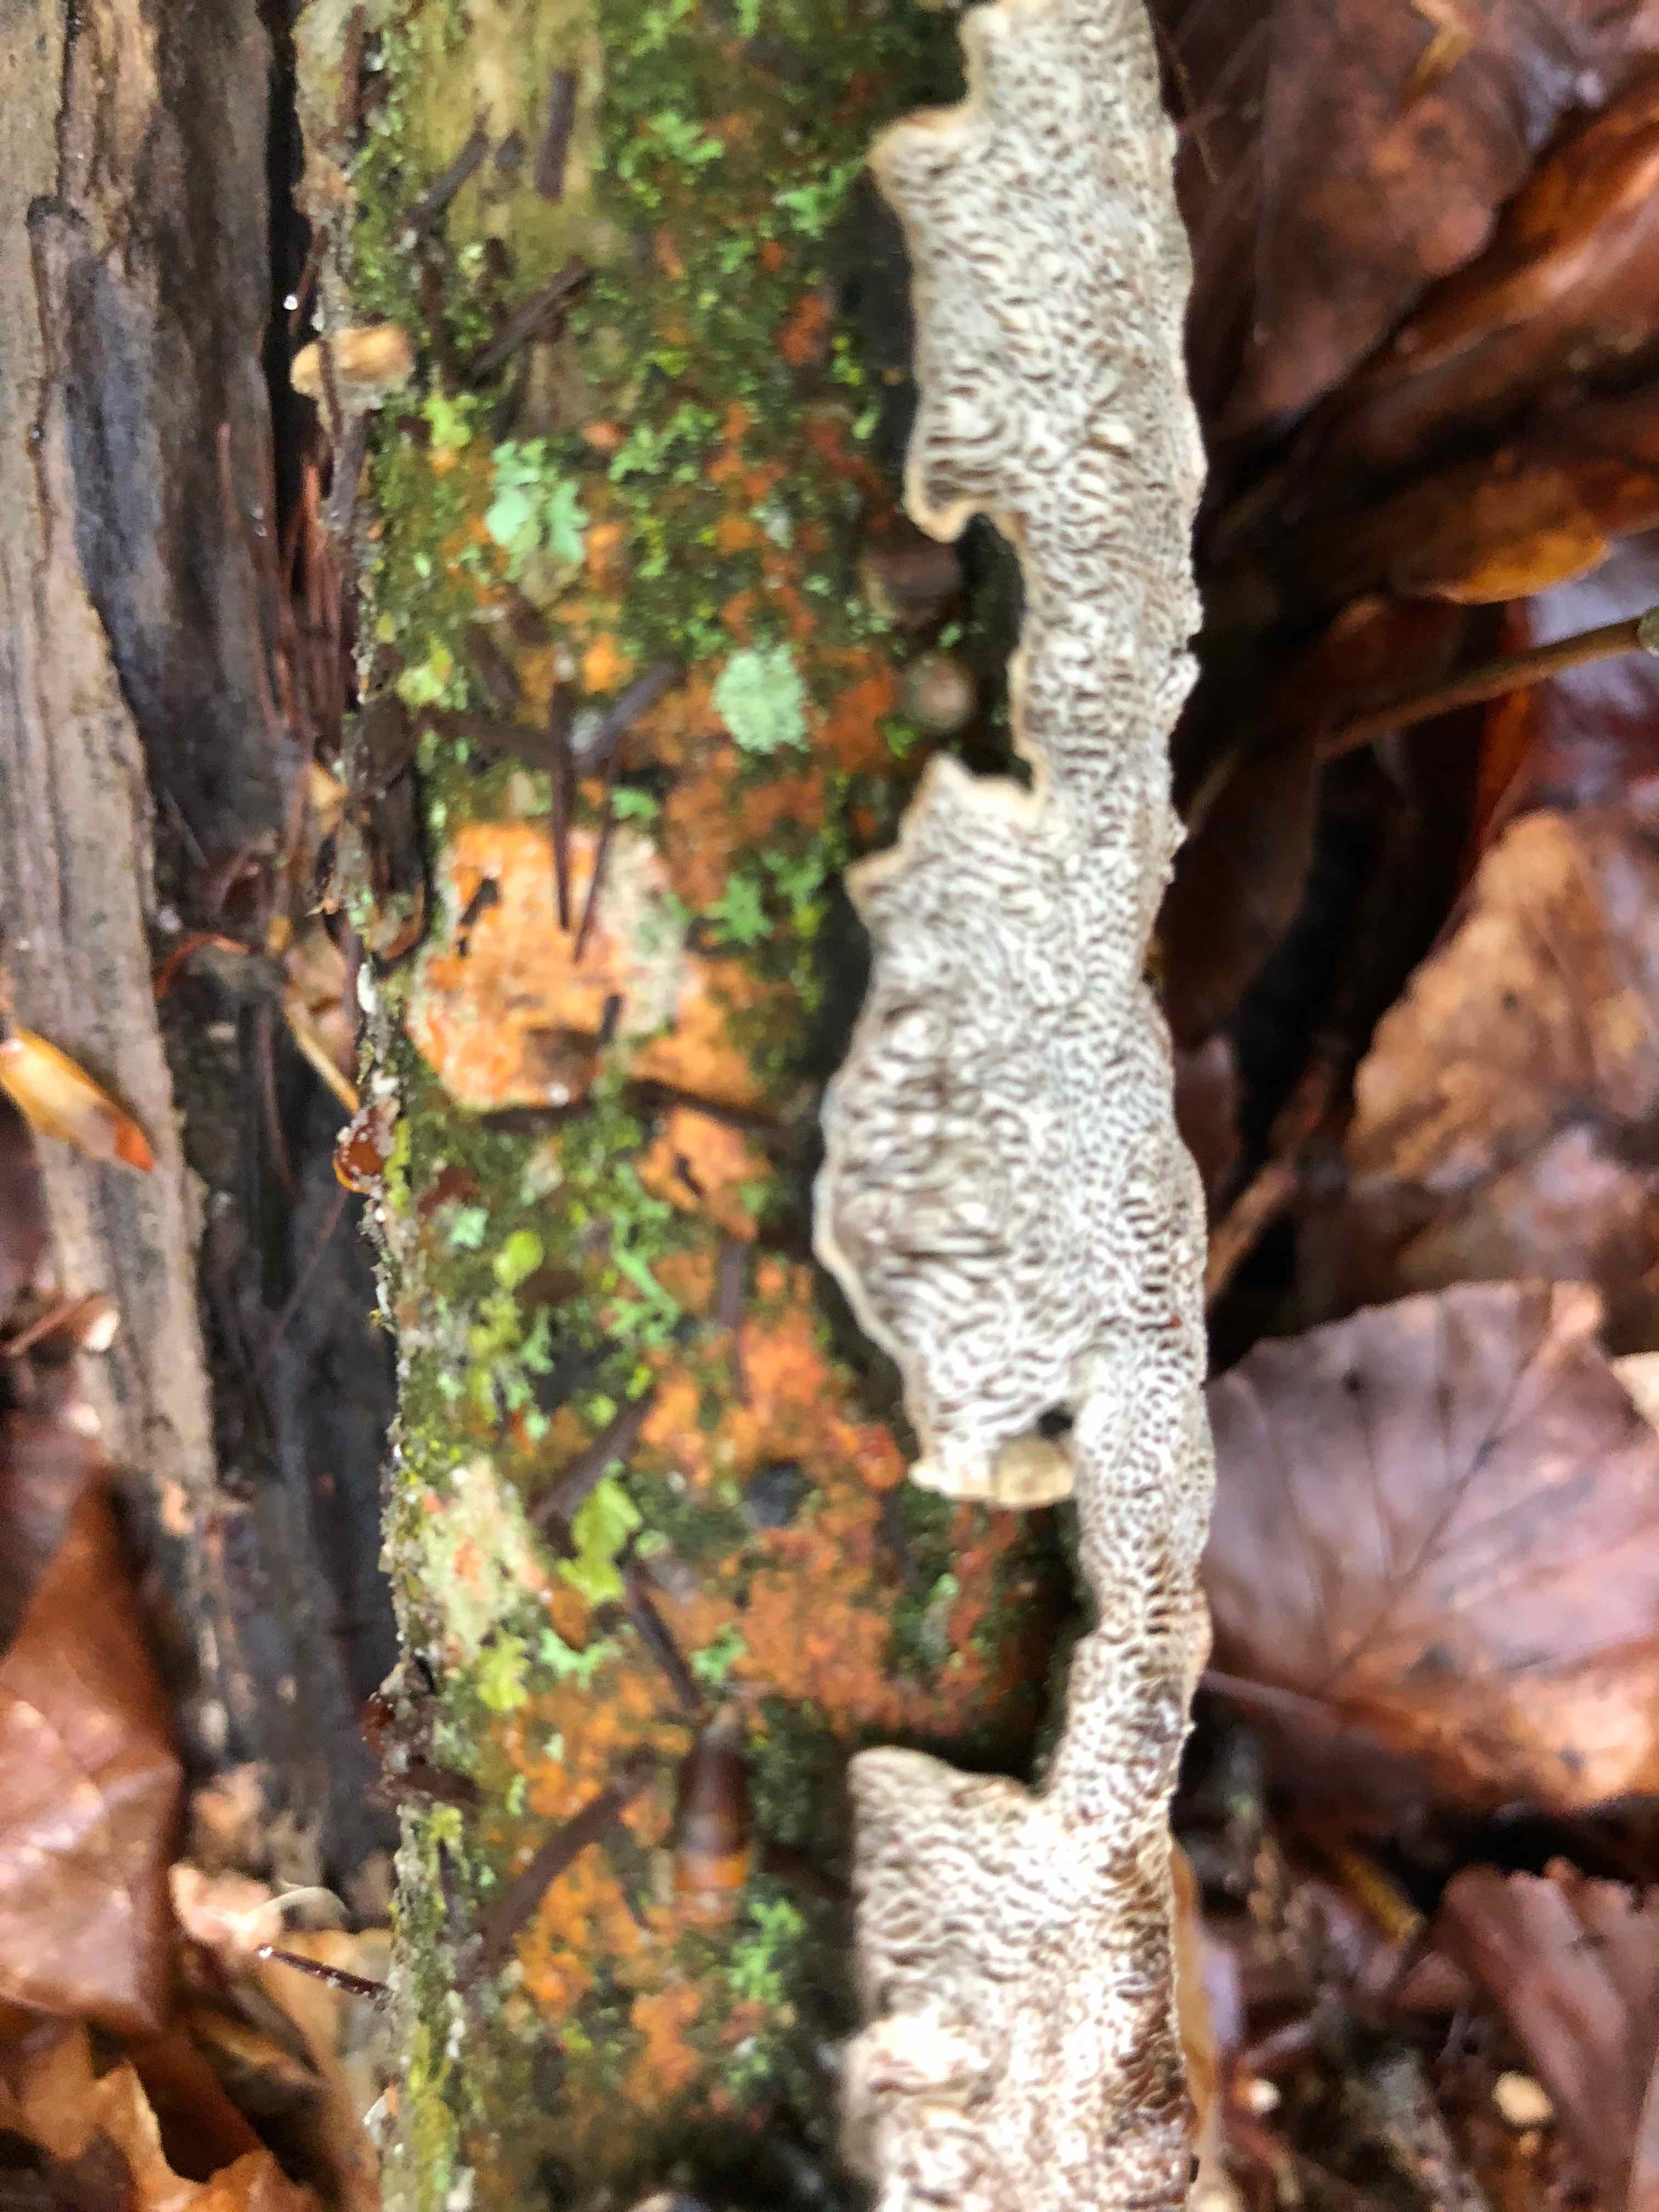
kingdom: Fungi
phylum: Basidiomycota
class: Agaricomycetes
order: Polyporales
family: Polyporaceae
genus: Podofomes
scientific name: Podofomes mollis
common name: blød begporesvamp
